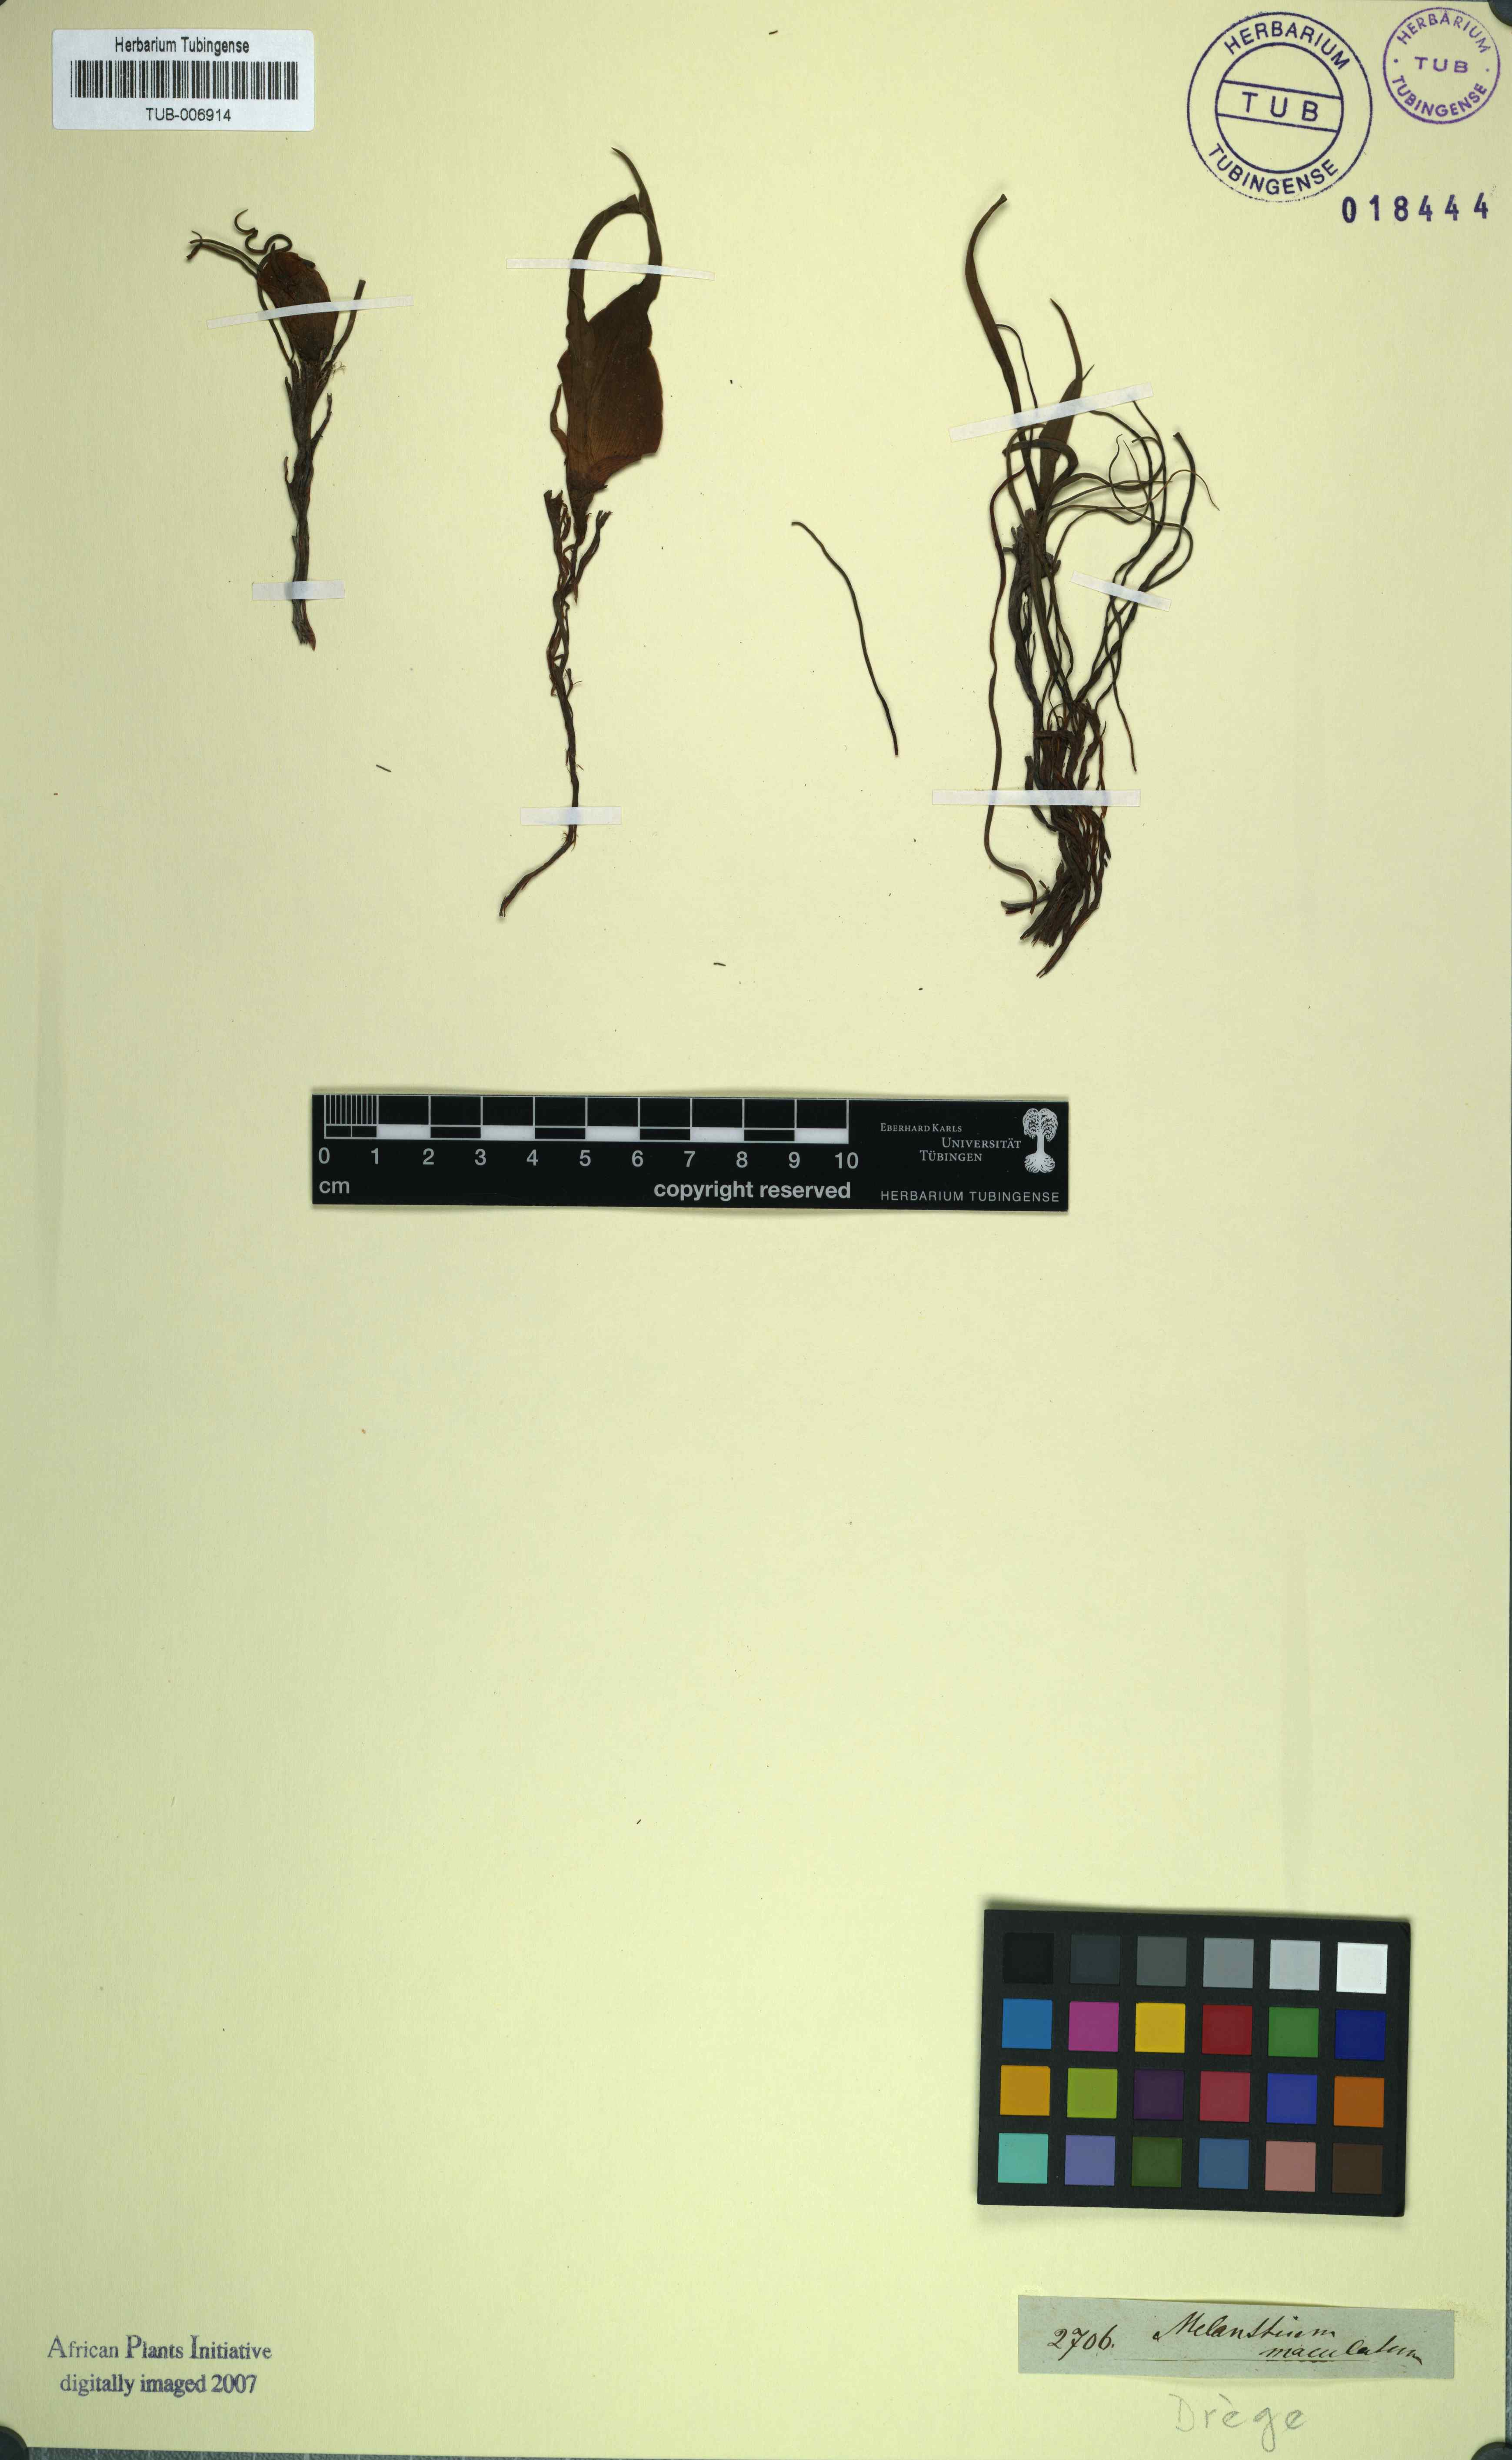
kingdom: Plantae
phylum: Tracheophyta
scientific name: Tracheophyta
